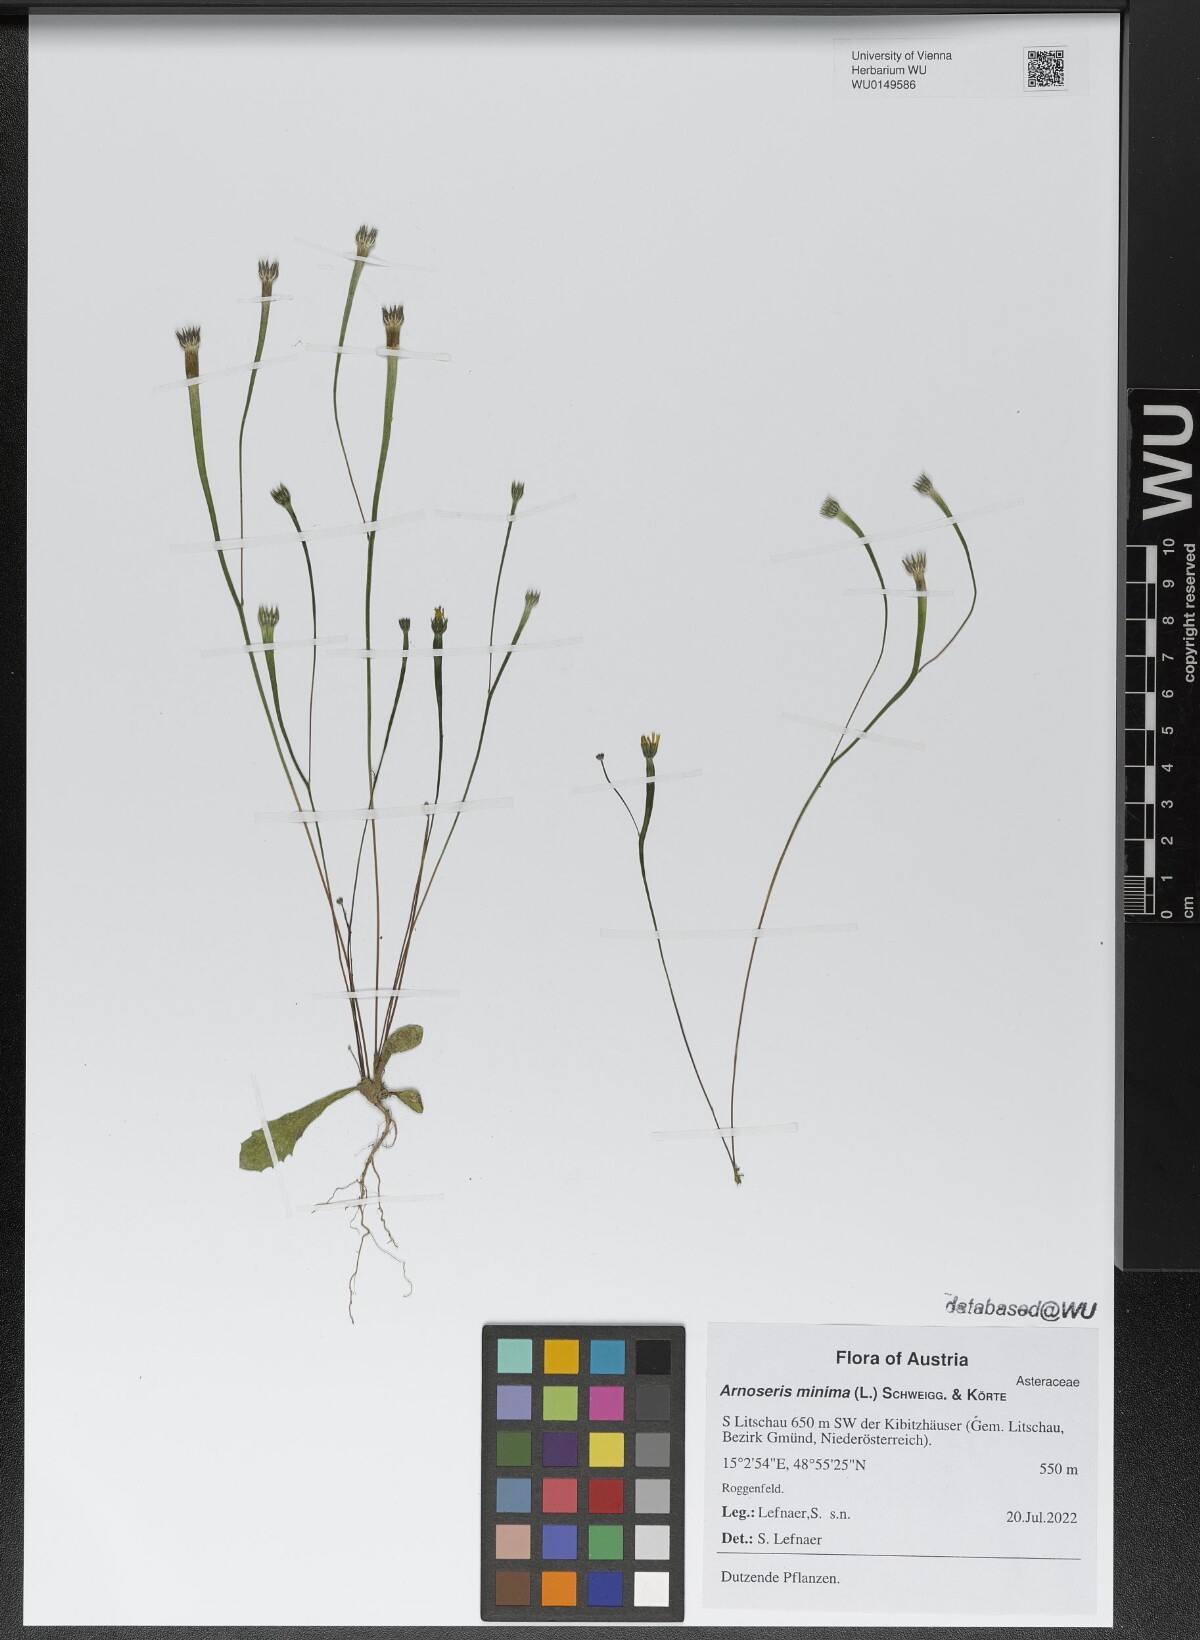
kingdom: Plantae
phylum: Tracheophyta
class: Magnoliopsida
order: Asterales
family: Asteraceae
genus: Arnoseris
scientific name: Arnoseris minima
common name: Lamb's succory
